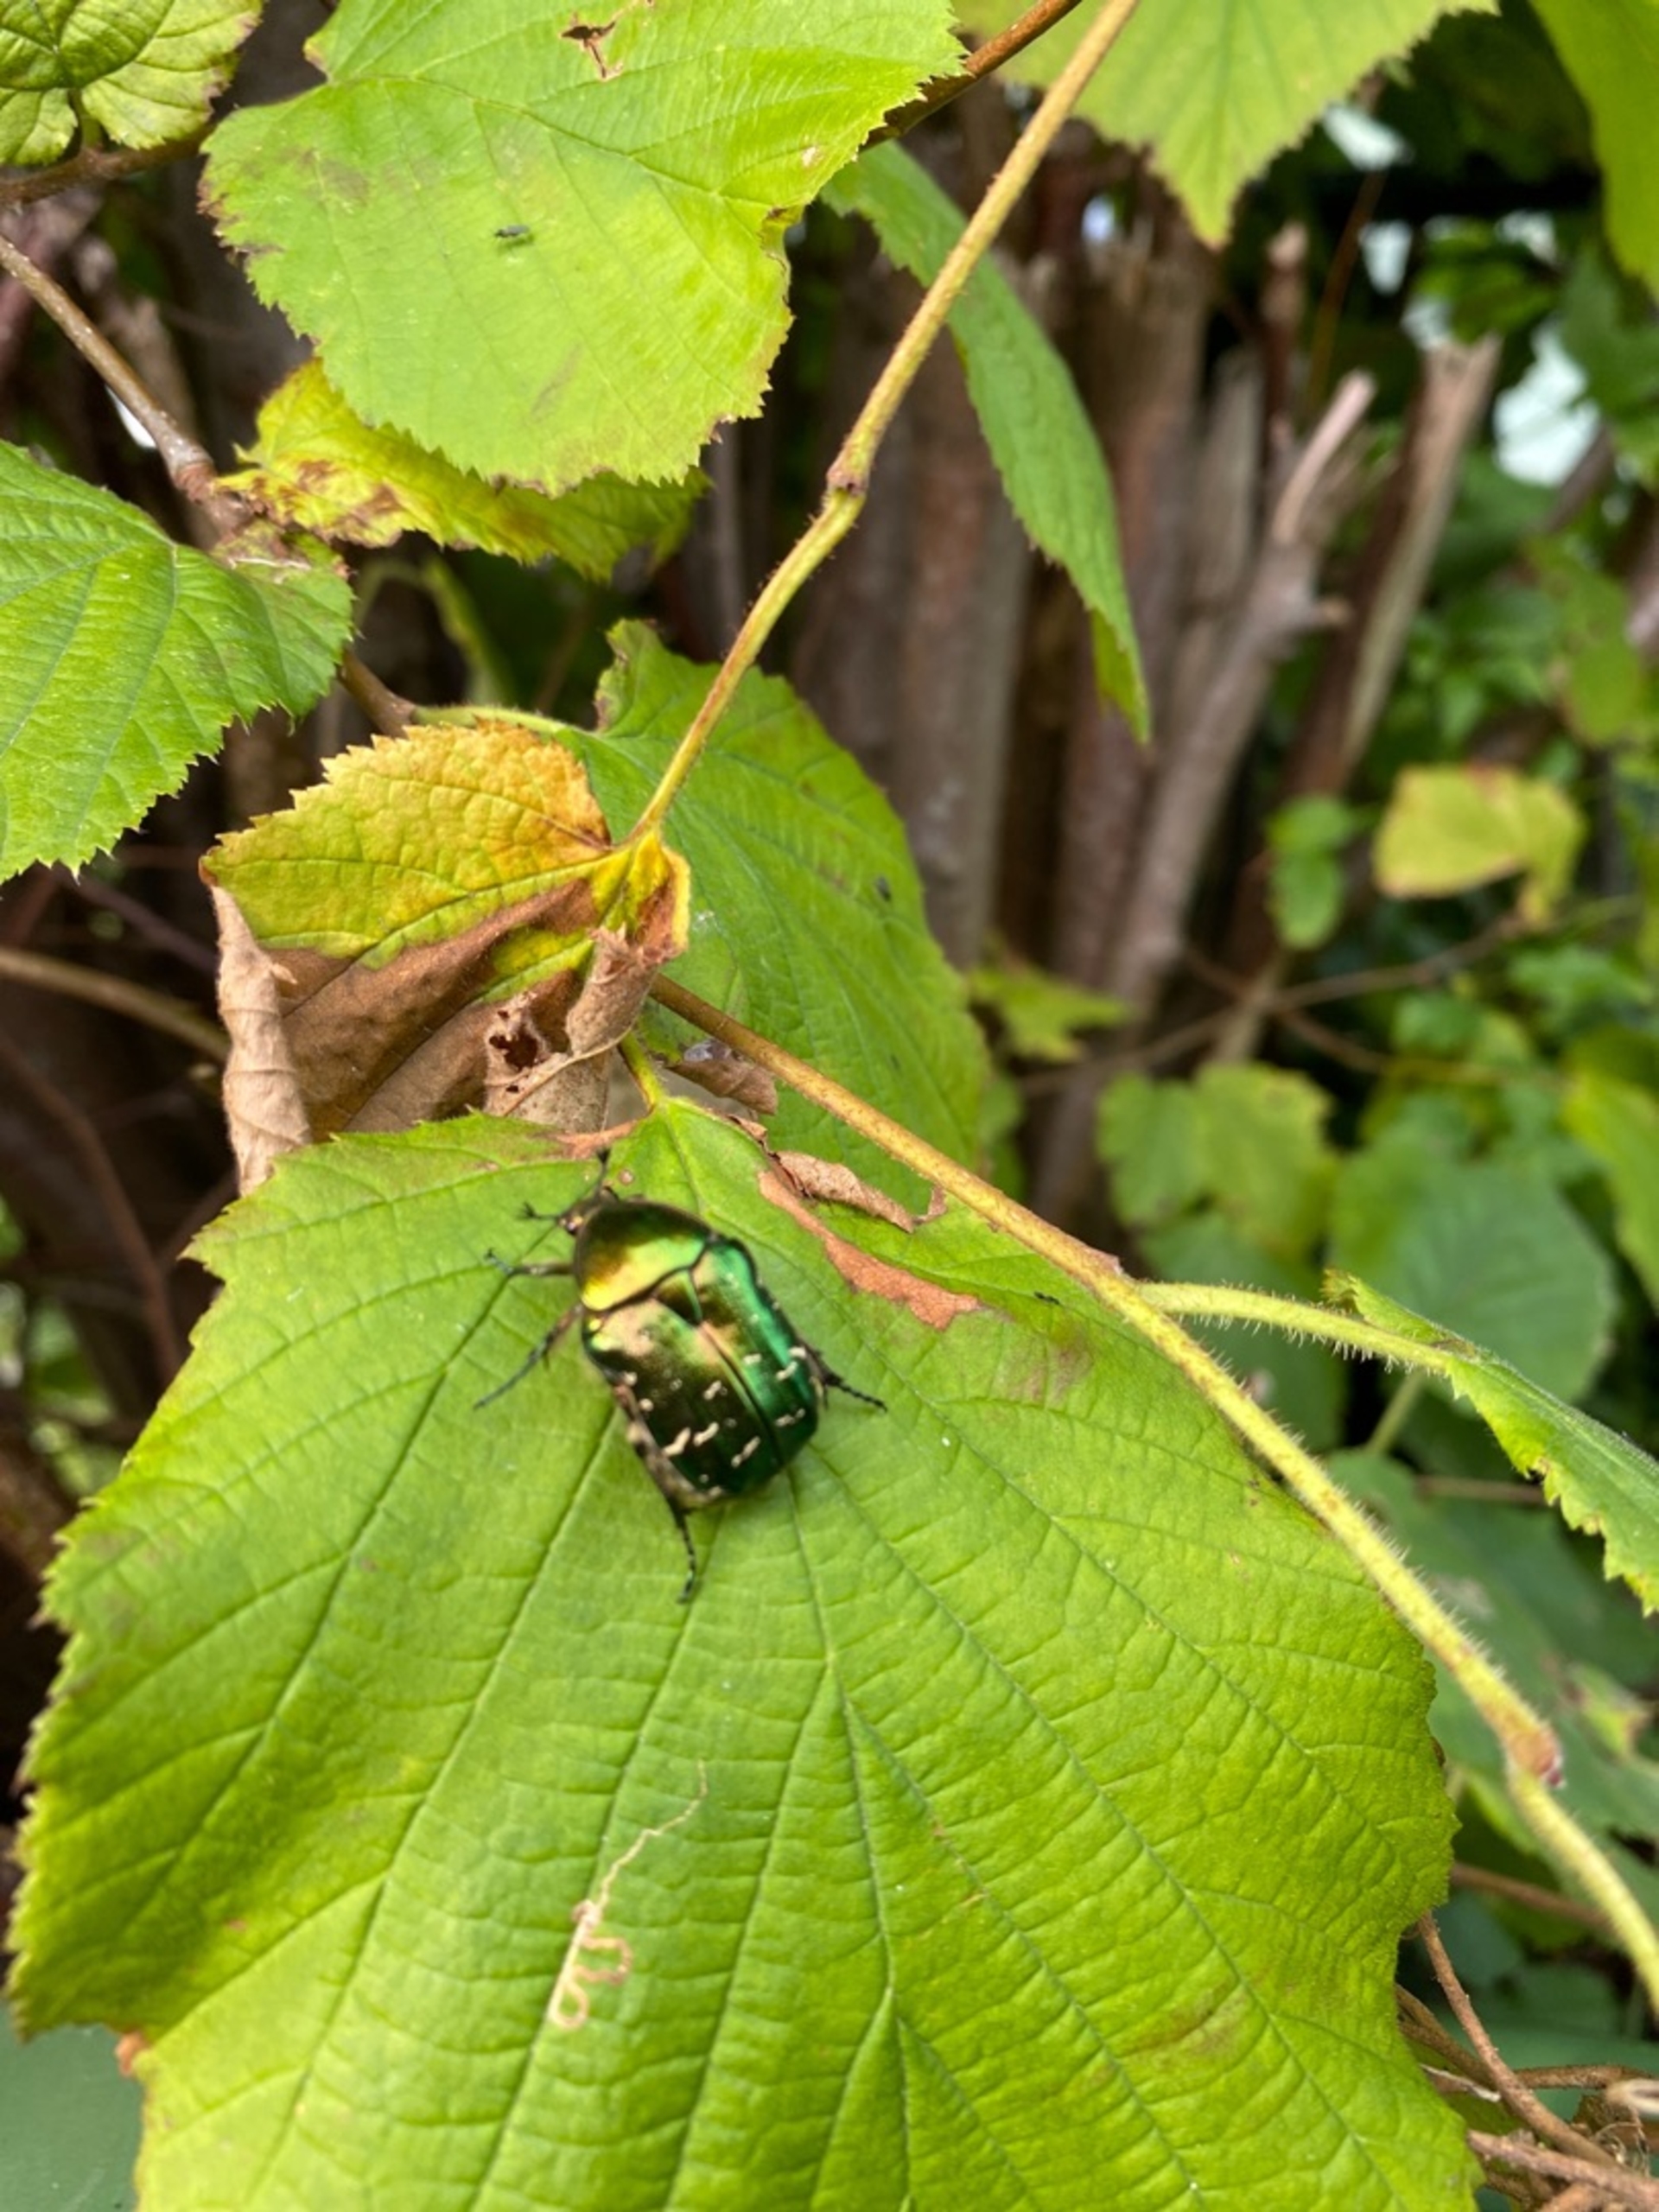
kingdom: Animalia
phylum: Arthropoda
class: Insecta
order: Coleoptera
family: Scarabaeidae
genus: Cetonia
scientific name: Cetonia aurata
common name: Grøn guldbasse
